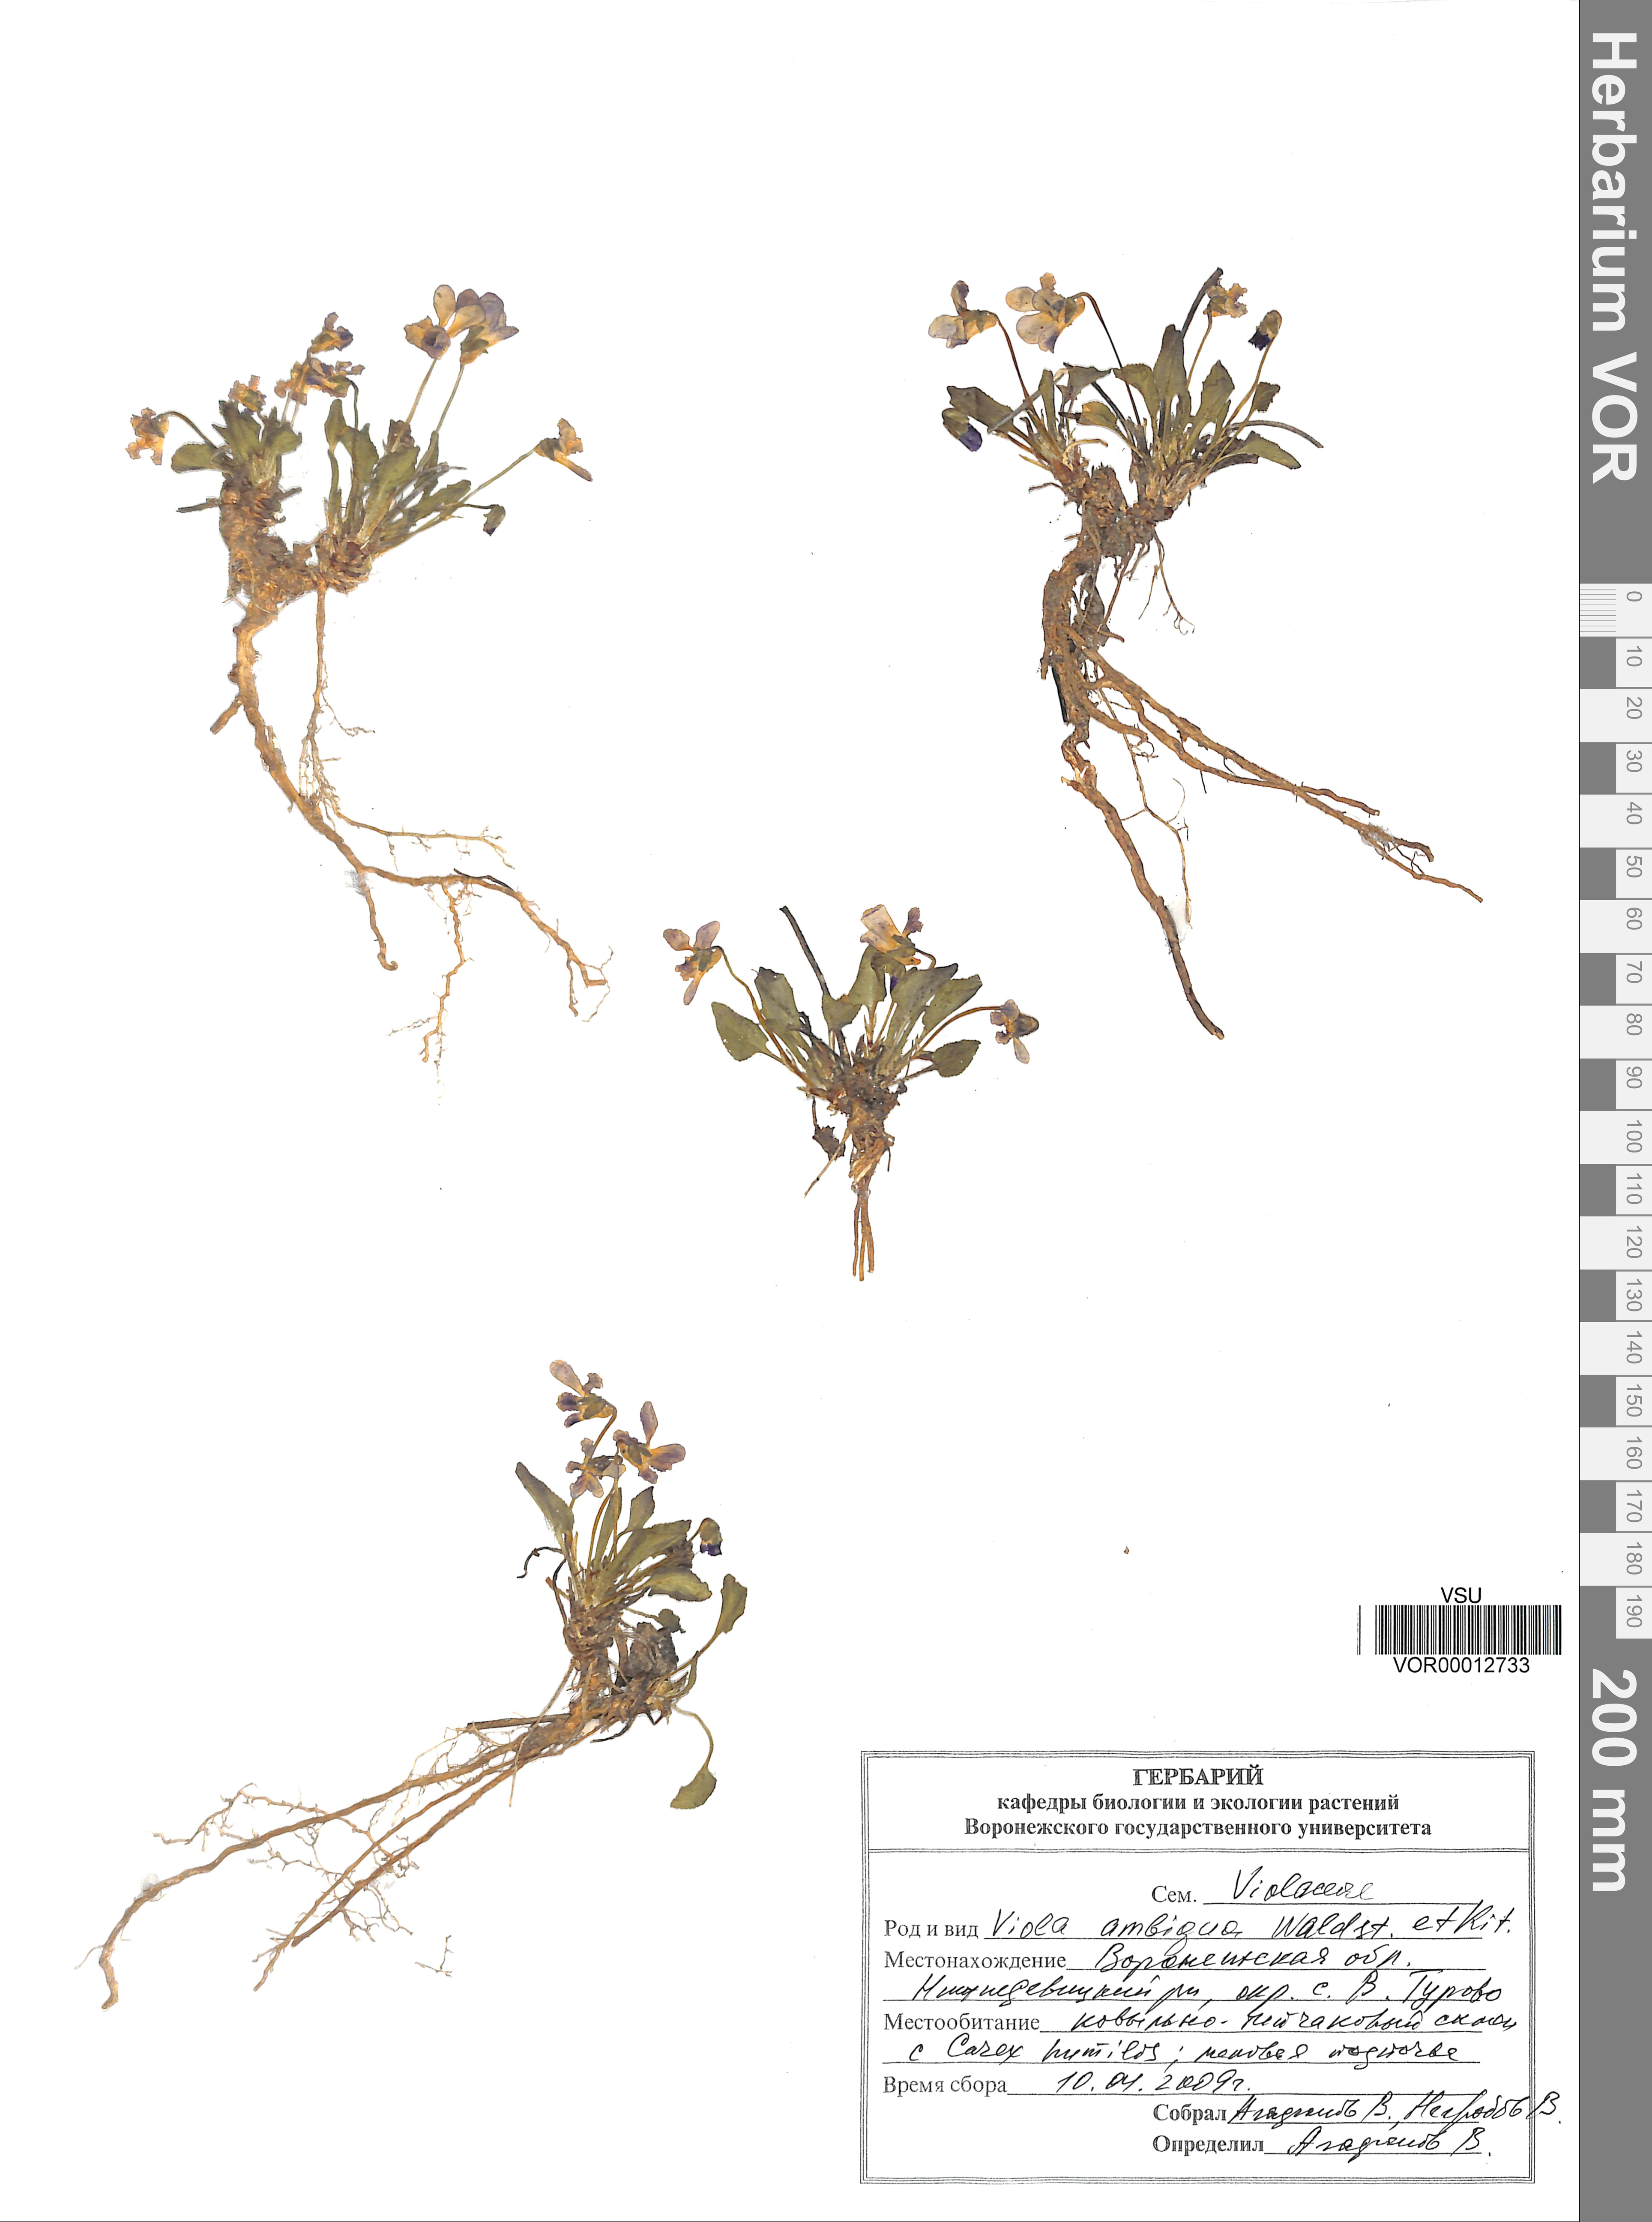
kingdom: Plantae
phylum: Tracheophyta
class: Magnoliopsida
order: Malpighiales
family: Violaceae
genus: Viola
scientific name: Viola ambigua
